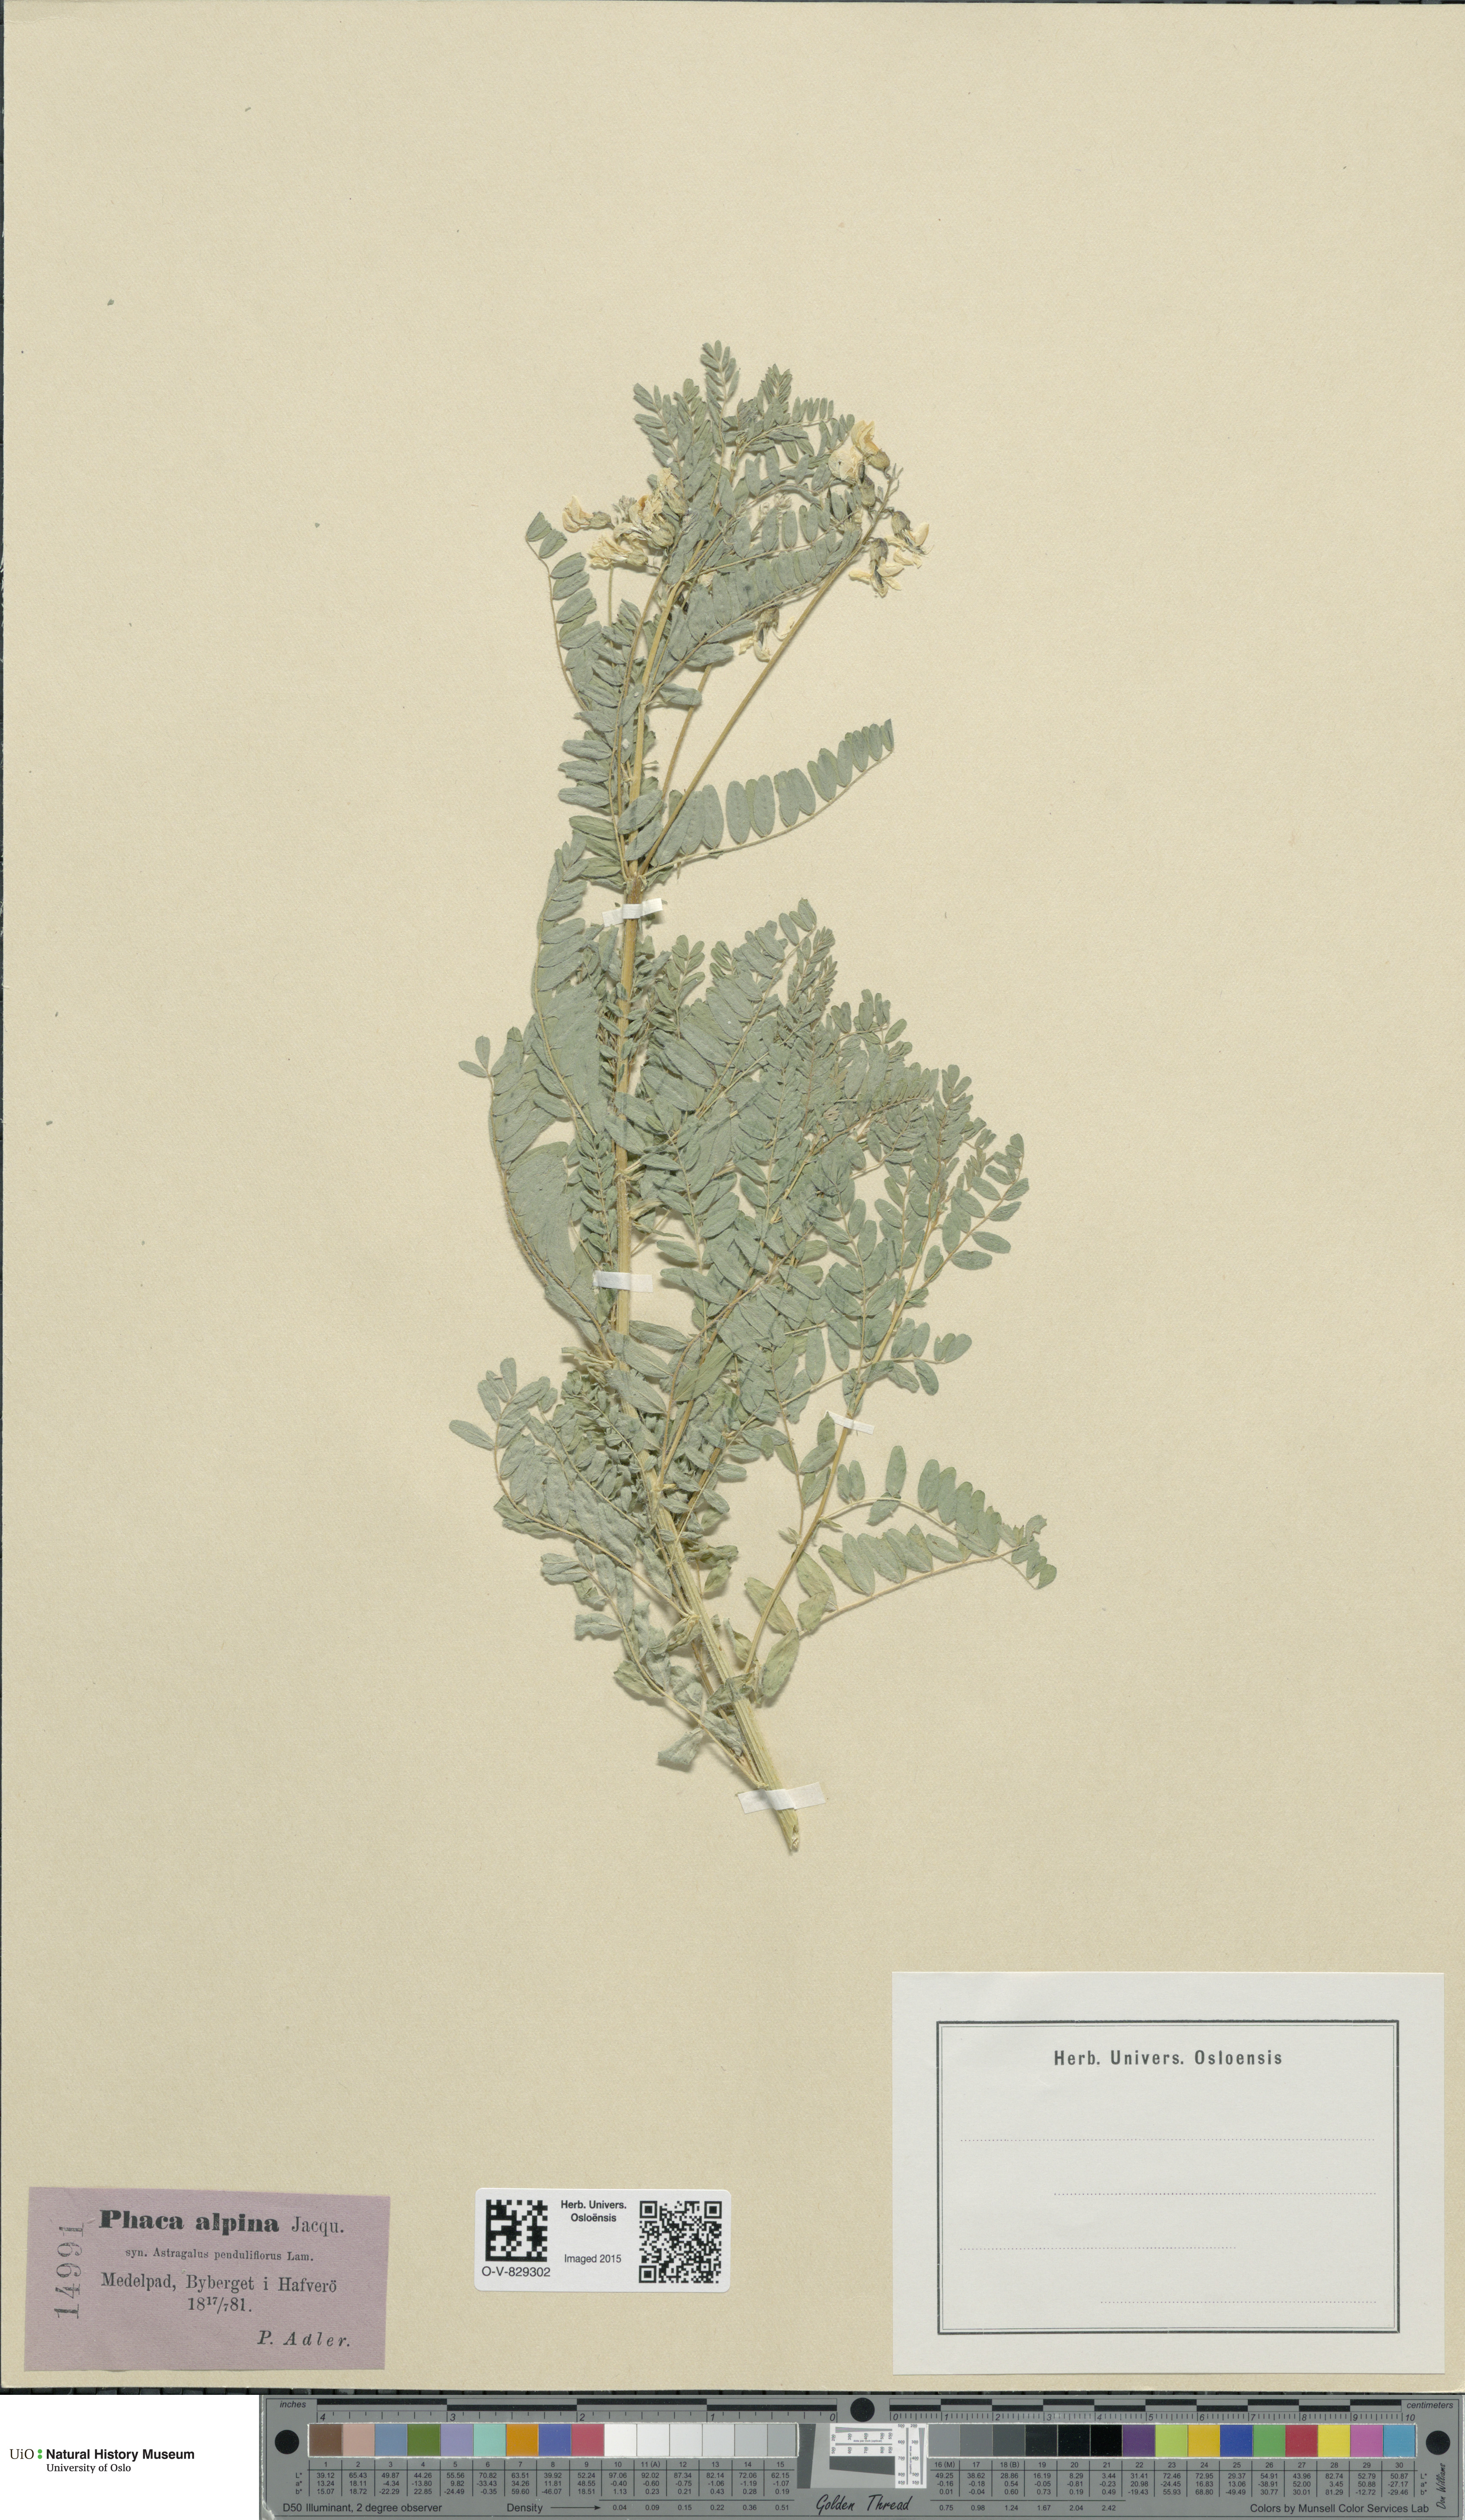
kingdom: Plantae
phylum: Tracheophyta
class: Magnoliopsida
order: Fabales
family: Fabaceae
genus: Astragalus
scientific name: Astragalus penduliflorus
